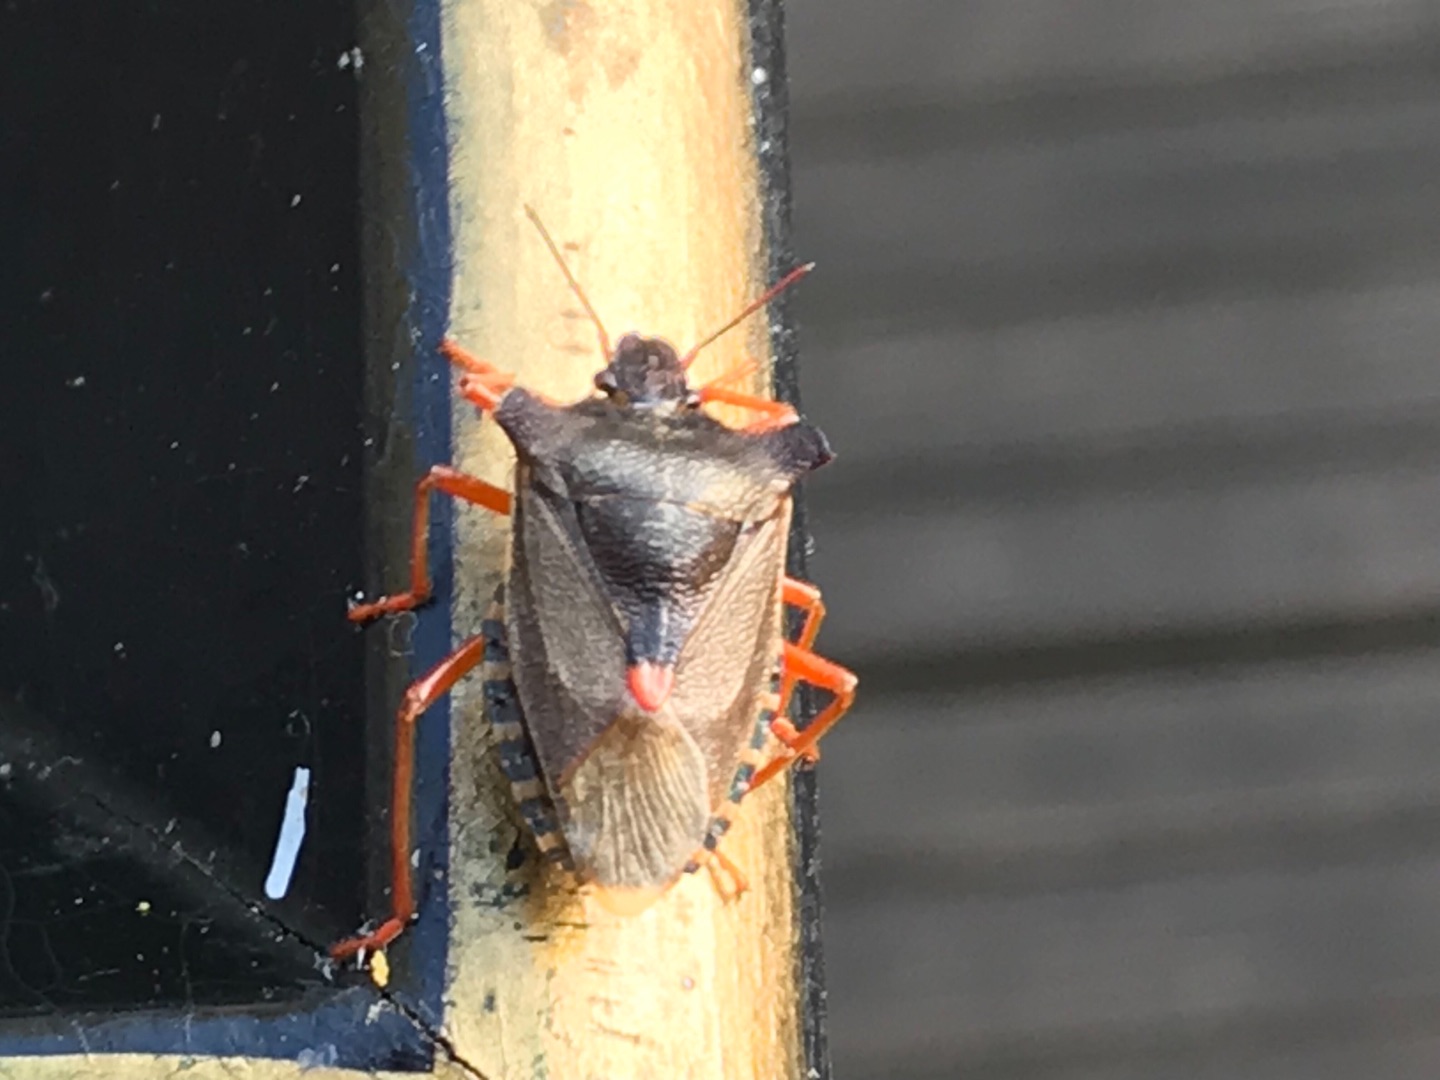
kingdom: Animalia
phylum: Arthropoda
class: Insecta
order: Hemiptera
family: Pentatomidae
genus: Pentatoma
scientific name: Pentatoma rufipes
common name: Rødbenet bredtæge
